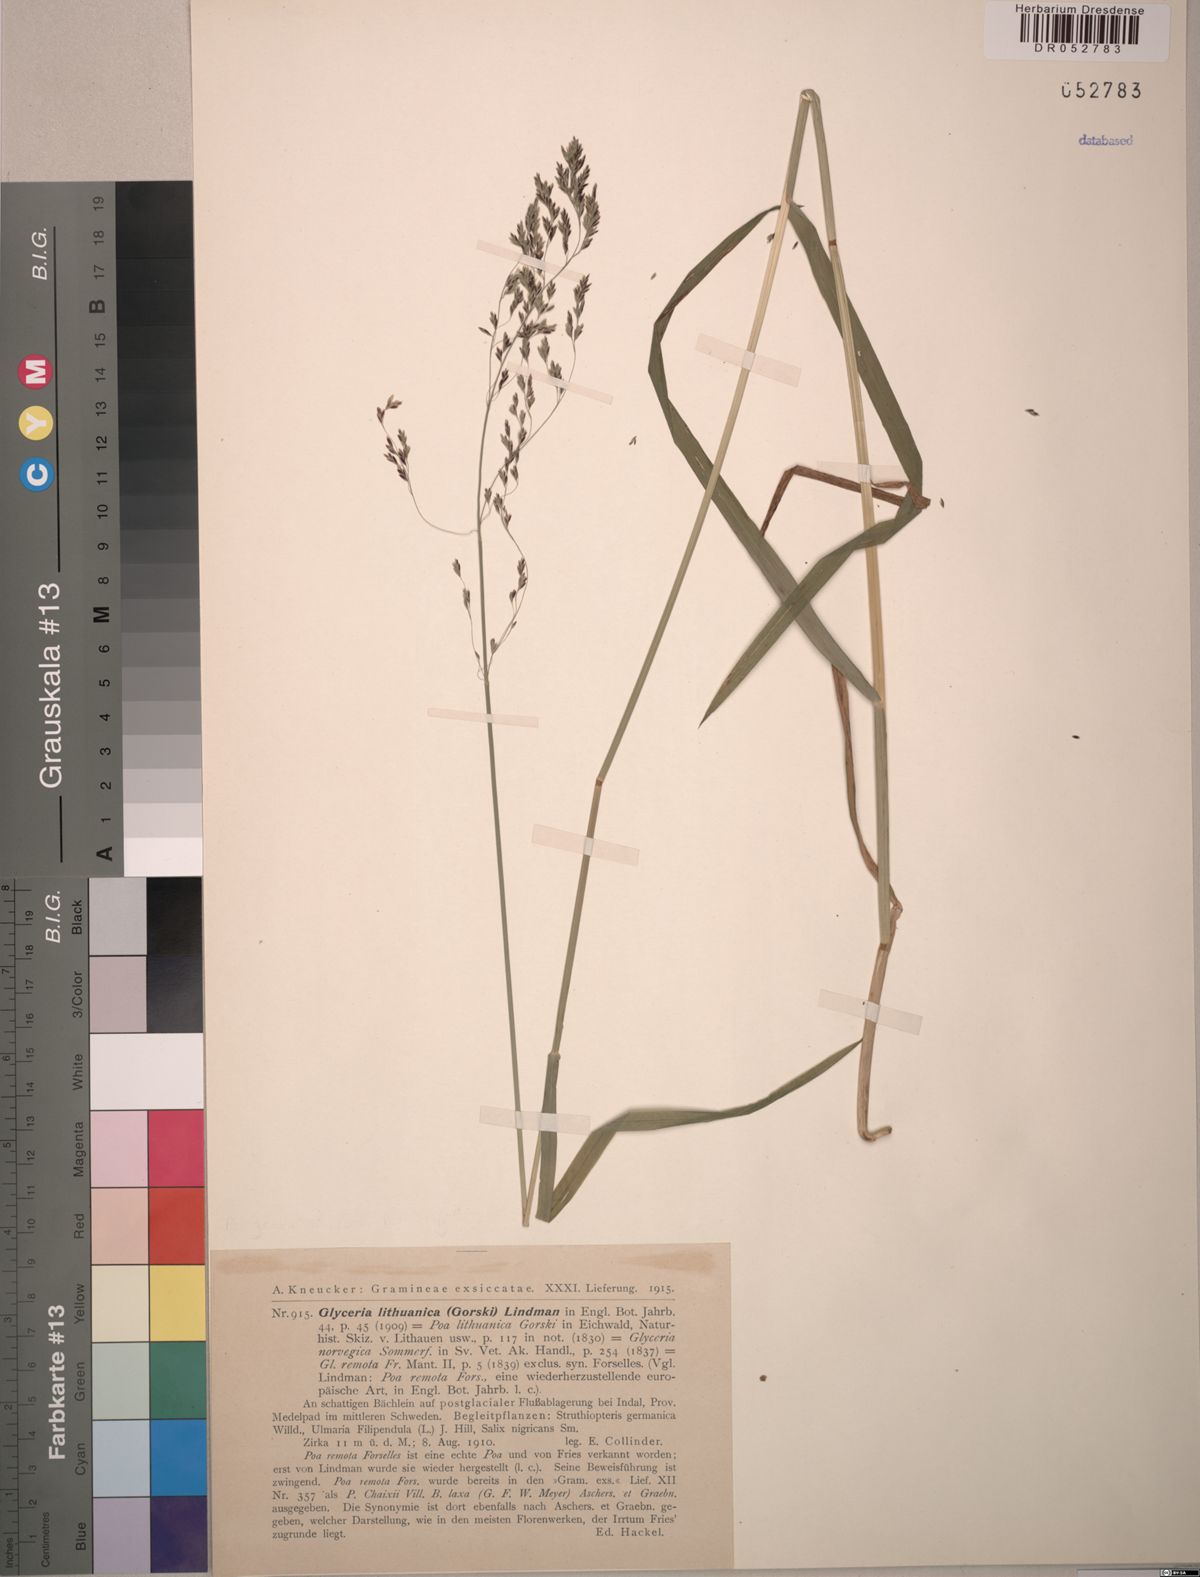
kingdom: Plantae
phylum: Tracheophyta
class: Liliopsida
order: Poales
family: Poaceae
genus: Glyceria
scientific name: Glyceria lithuanica
